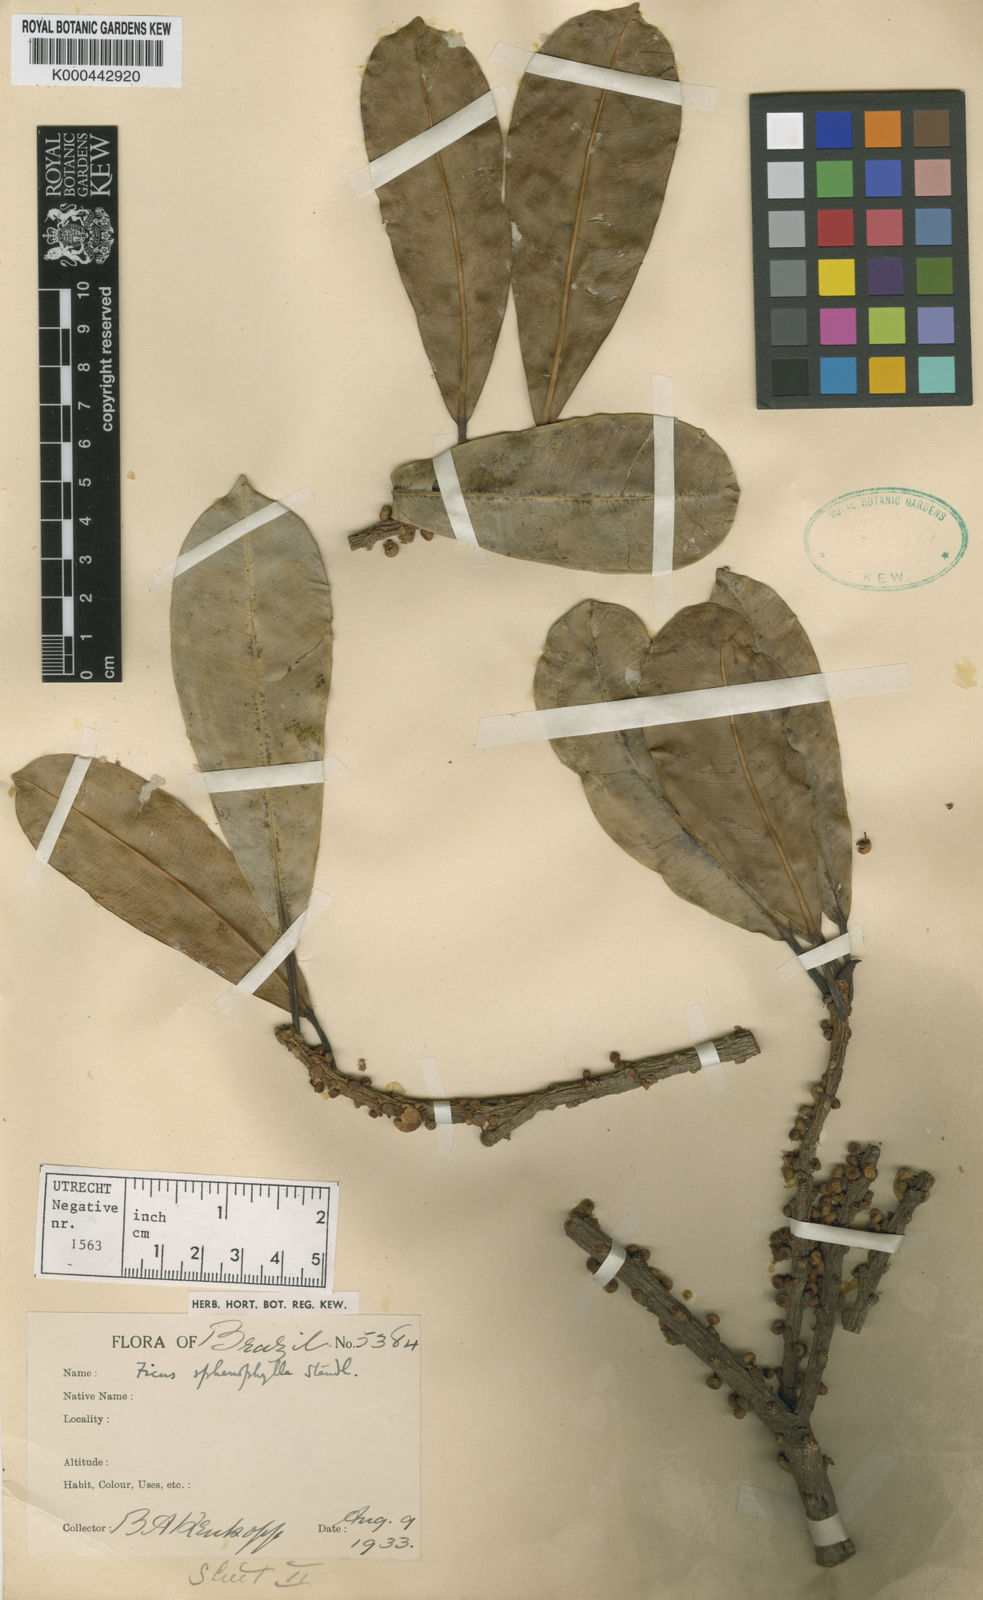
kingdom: Plantae
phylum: Tracheophyta
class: Magnoliopsida
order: Rosales
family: Moraceae
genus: Ficus
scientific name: Ficus sphenophylla
